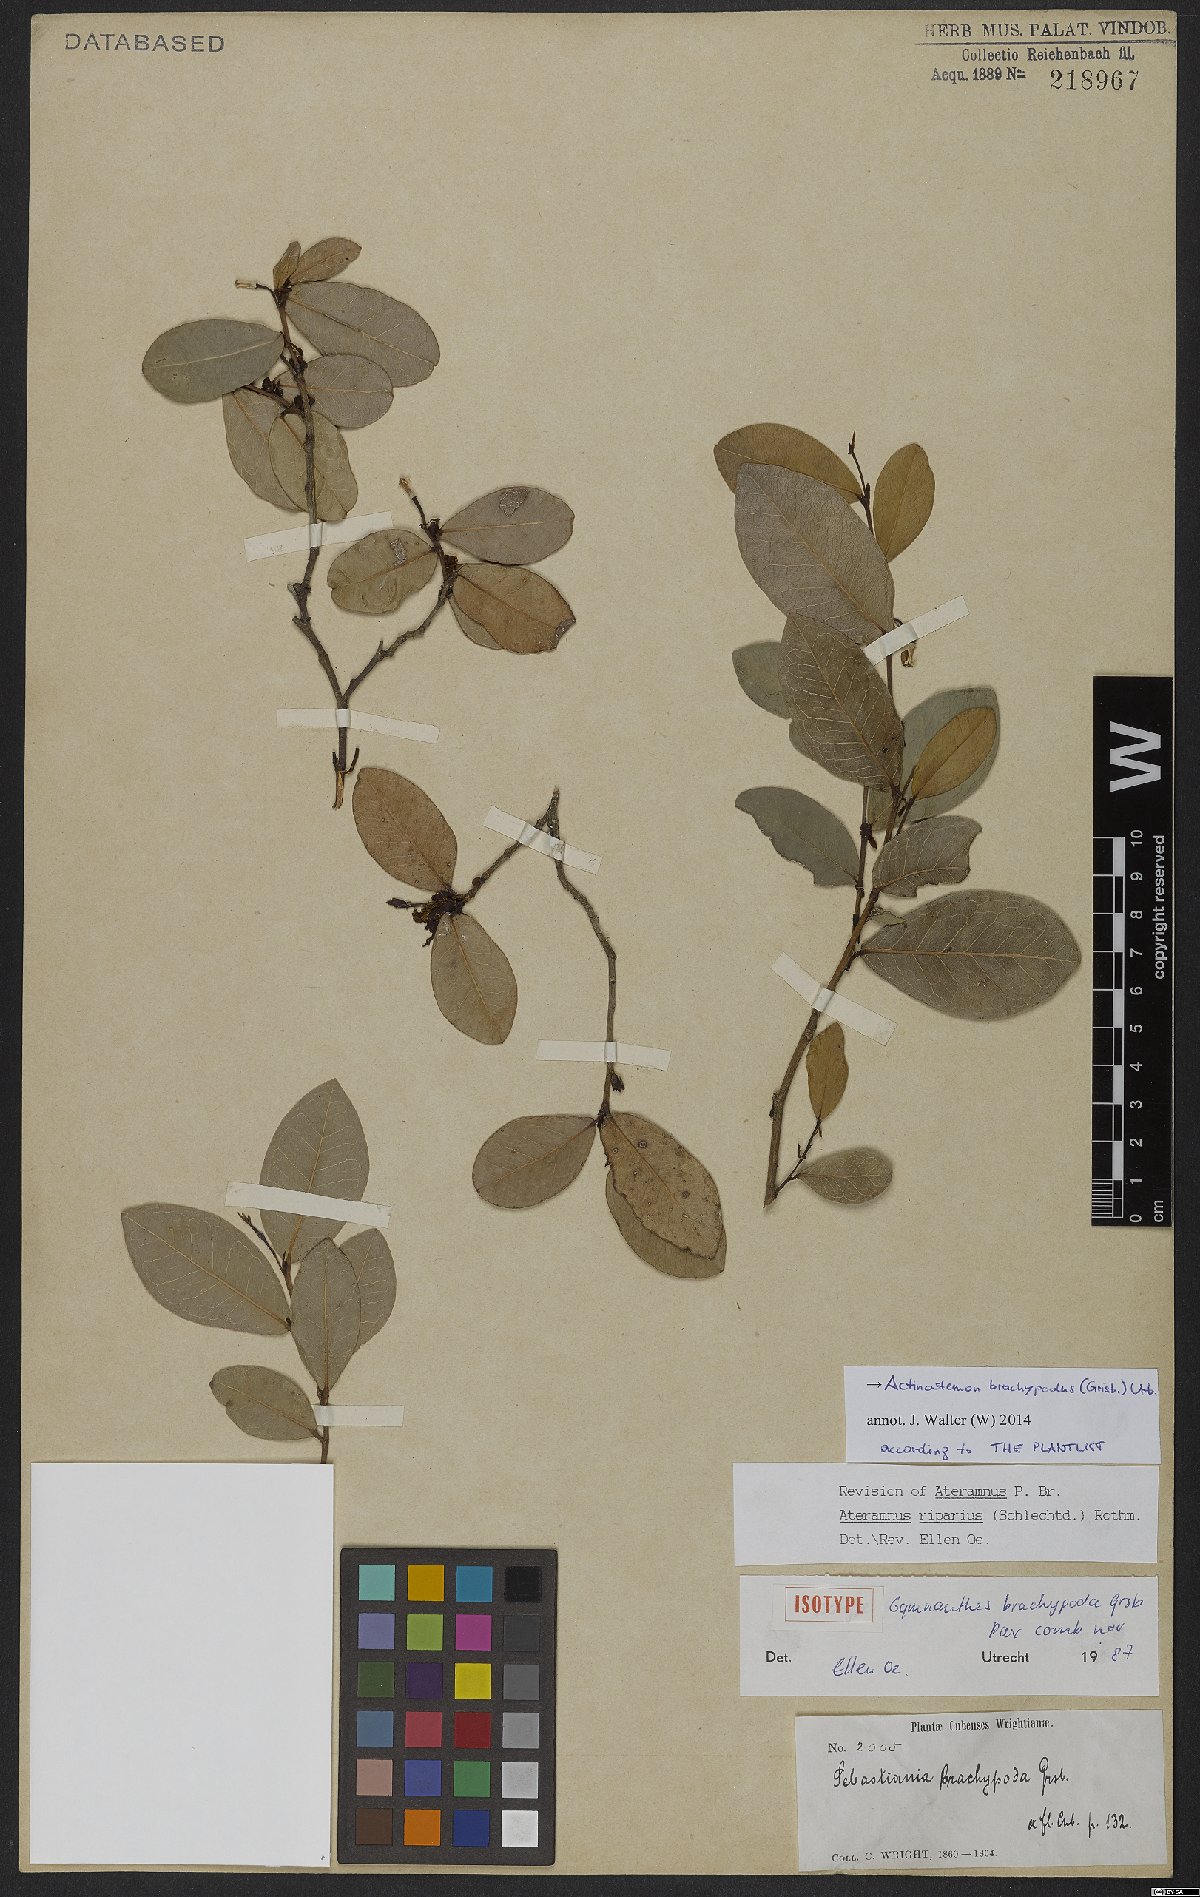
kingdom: Plantae
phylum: Tracheophyta
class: Magnoliopsida
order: Malpighiales
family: Euphorbiaceae
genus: Actinostemon
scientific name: Actinostemon brachypodus
